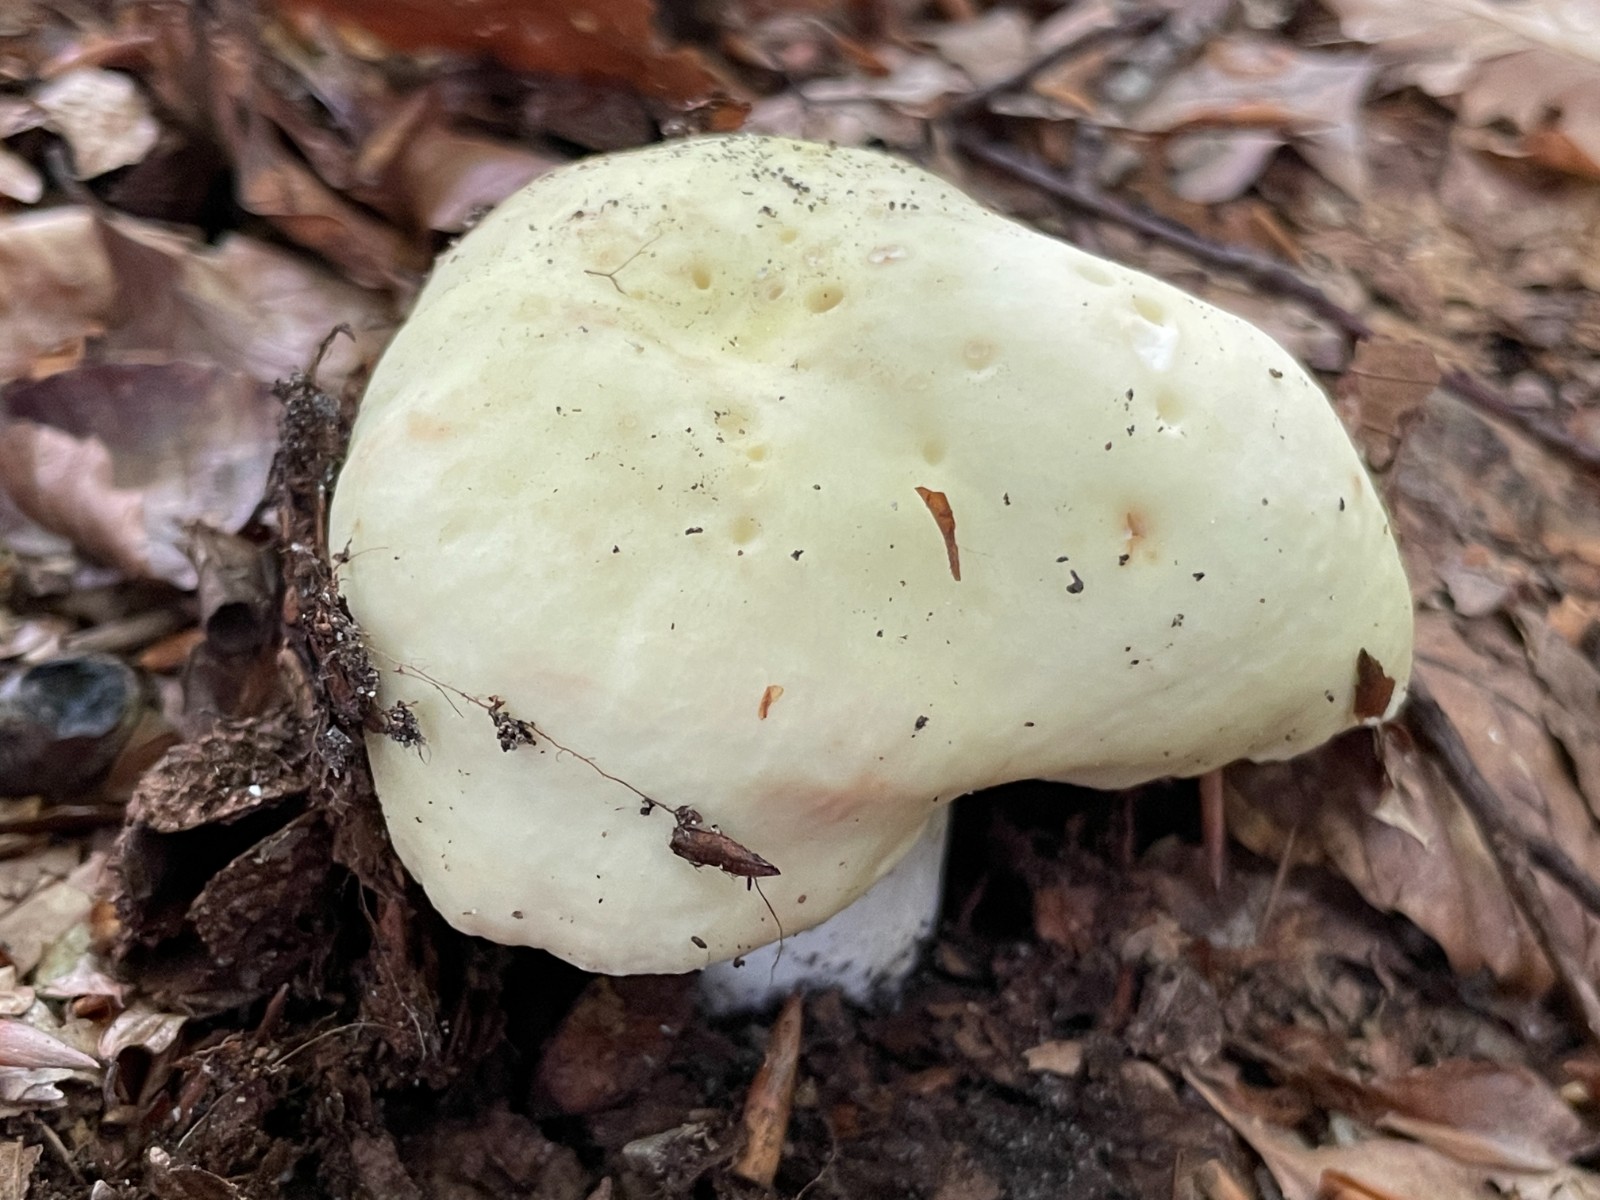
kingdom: Fungi
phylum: Basidiomycota
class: Agaricomycetes
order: Russulales
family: Russulaceae
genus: Russula
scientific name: Russula violeipes
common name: ferskengul skørhat
